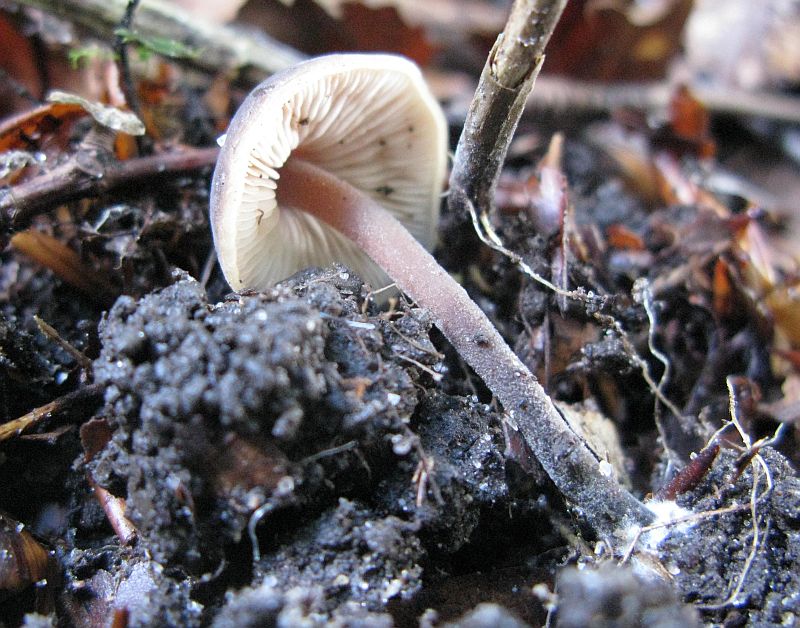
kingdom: Fungi
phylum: Basidiomycota
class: Agaricomycetes
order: Agaricales
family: Macrocystidiaceae
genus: Macrocystidia
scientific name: Macrocystidia cucumis
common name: agurkehat
